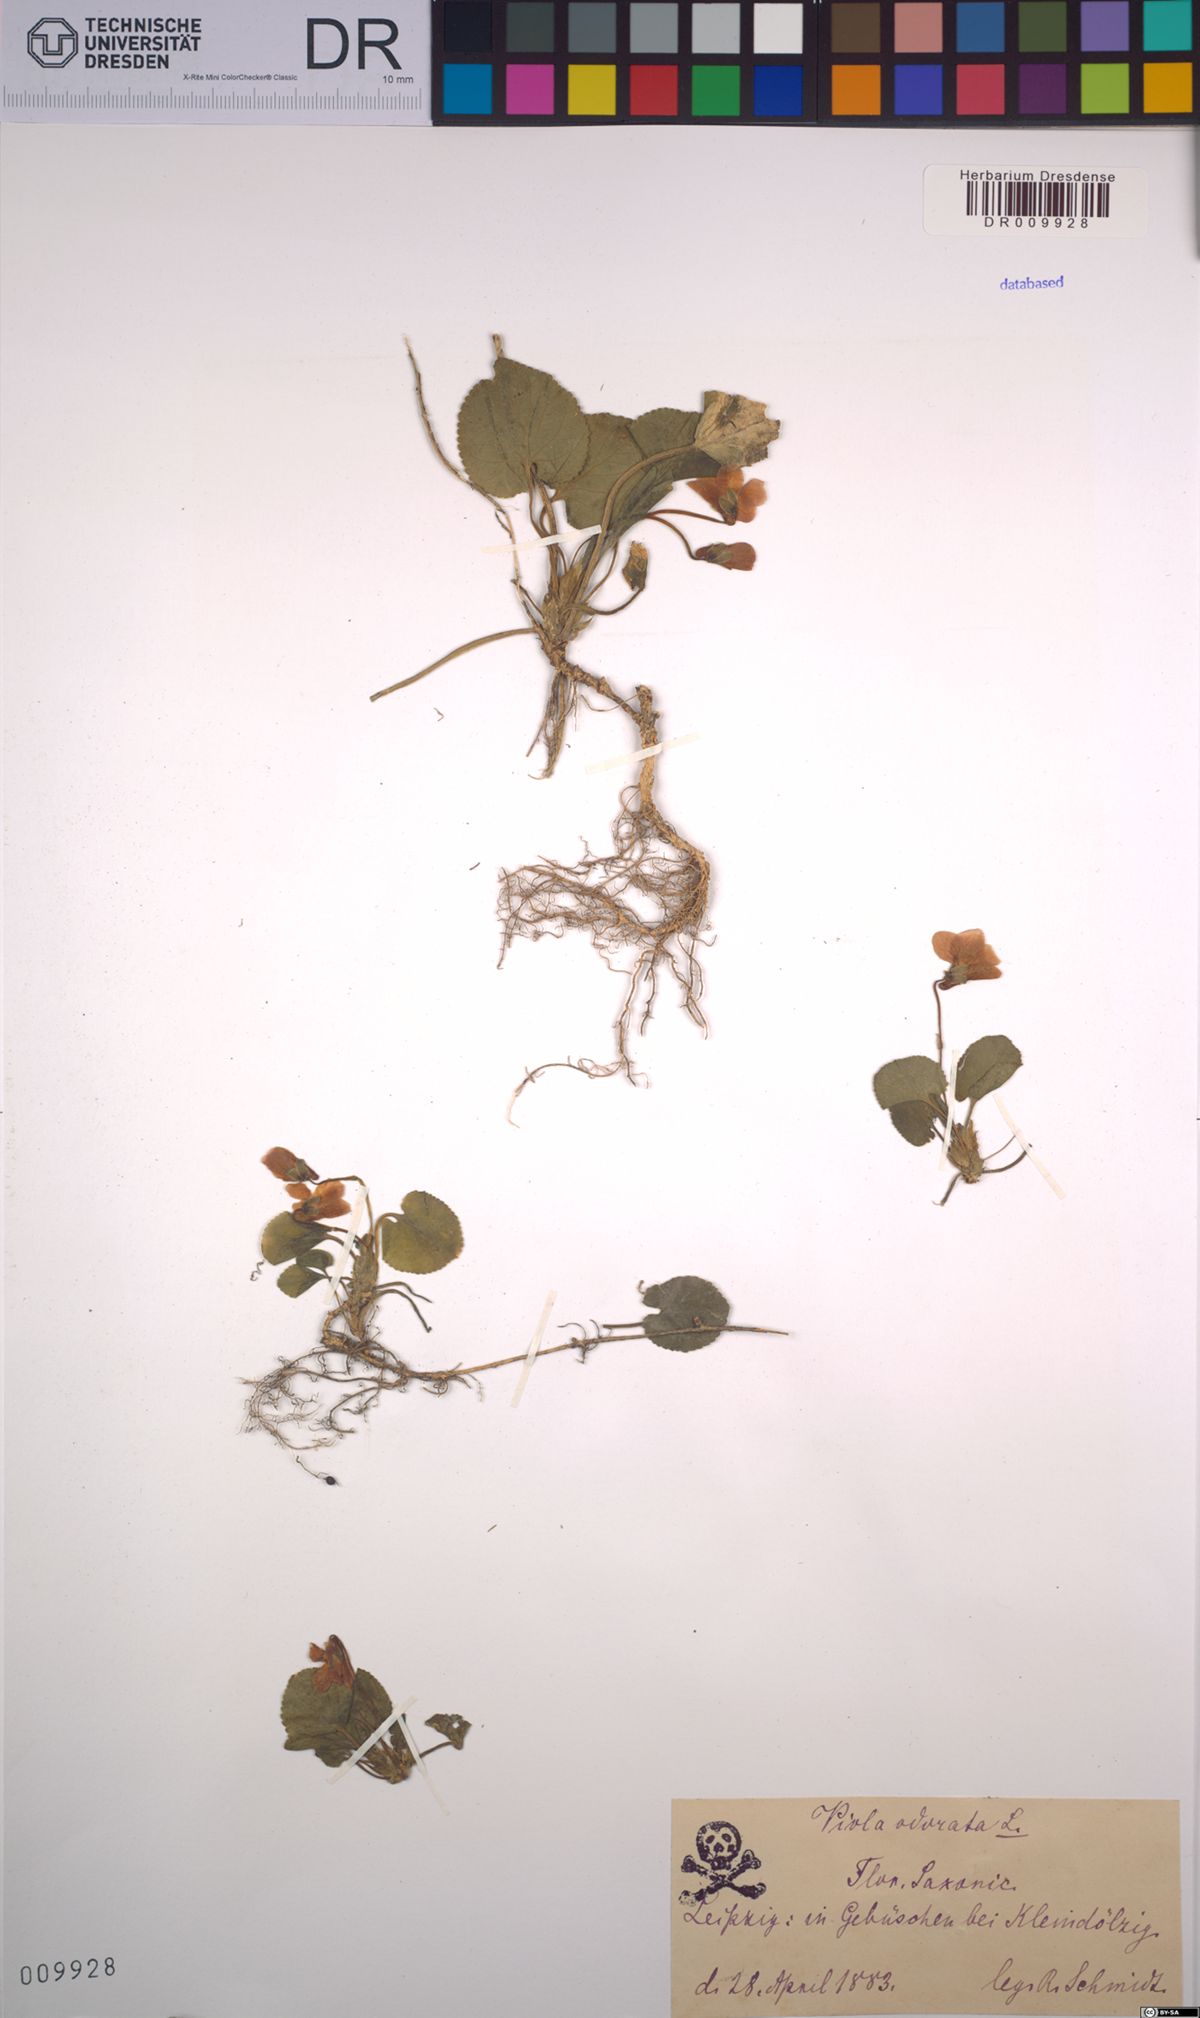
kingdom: Plantae
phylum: Tracheophyta
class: Magnoliopsida
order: Malpighiales
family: Violaceae
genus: Viola
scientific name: Viola odorata
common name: Sweet violet
